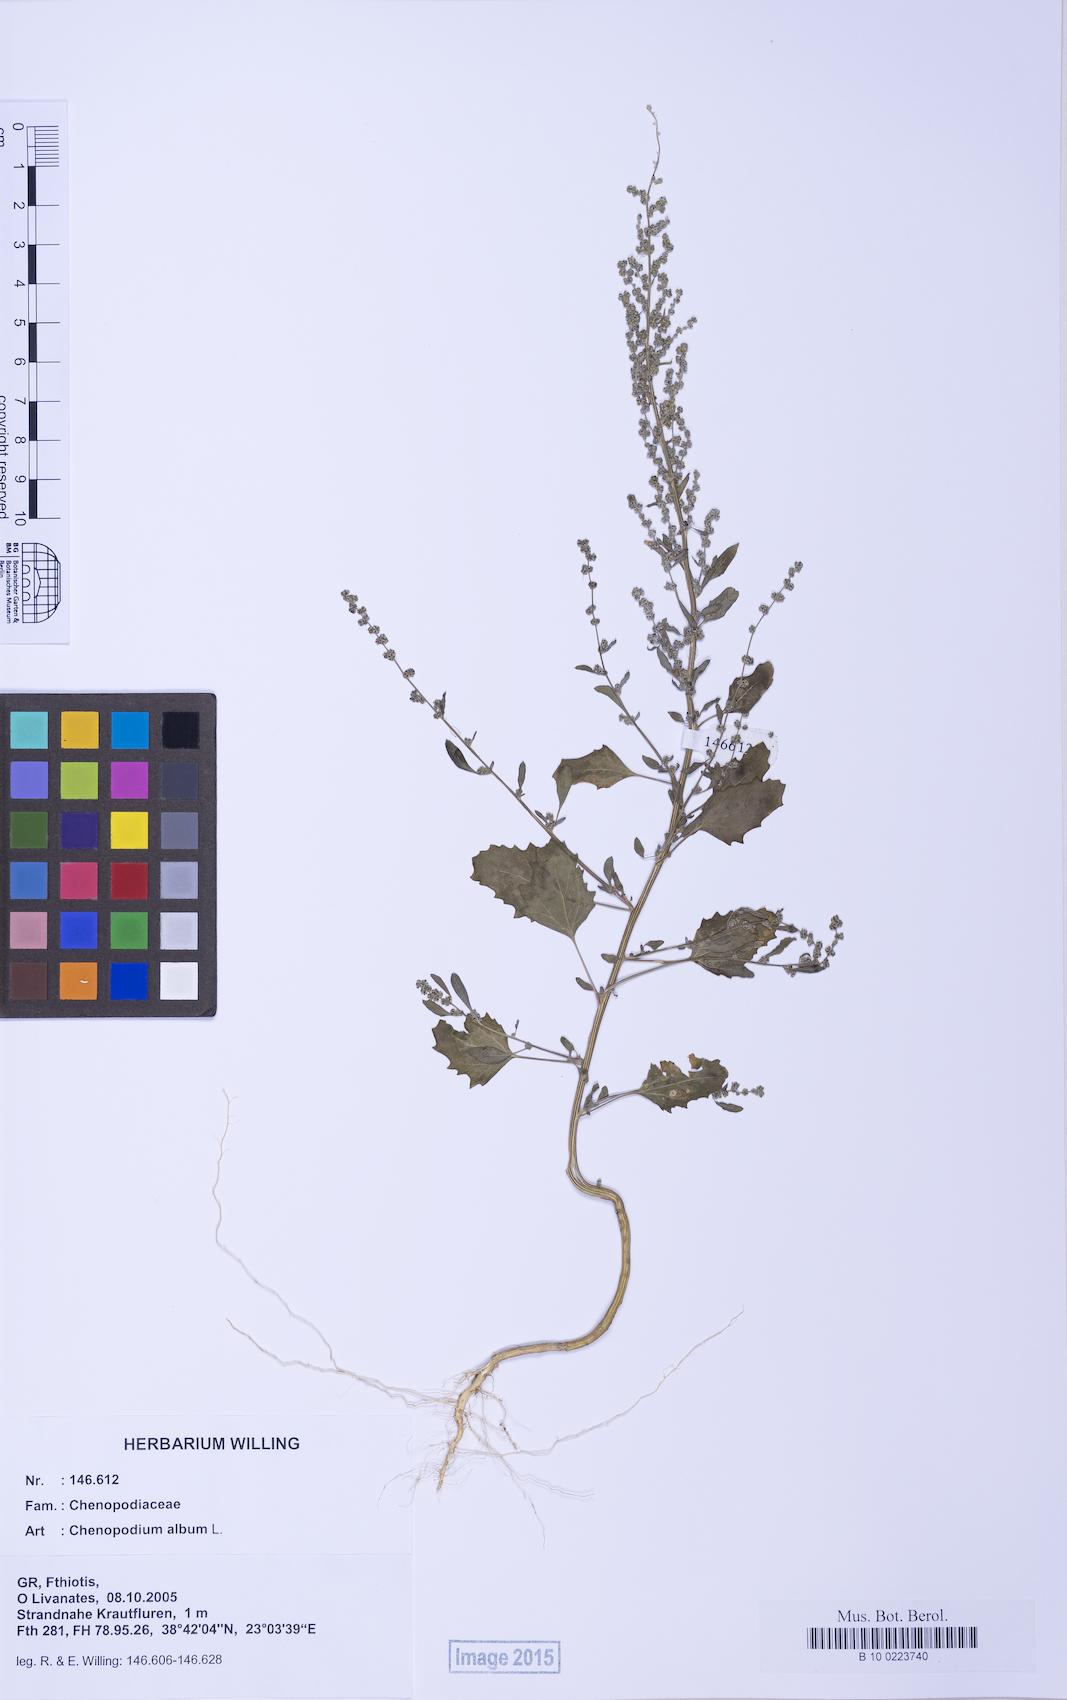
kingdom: Plantae
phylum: Tracheophyta
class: Magnoliopsida
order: Caryophyllales
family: Amaranthaceae
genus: Chenopodium
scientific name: Chenopodium album
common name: Fat-hen
